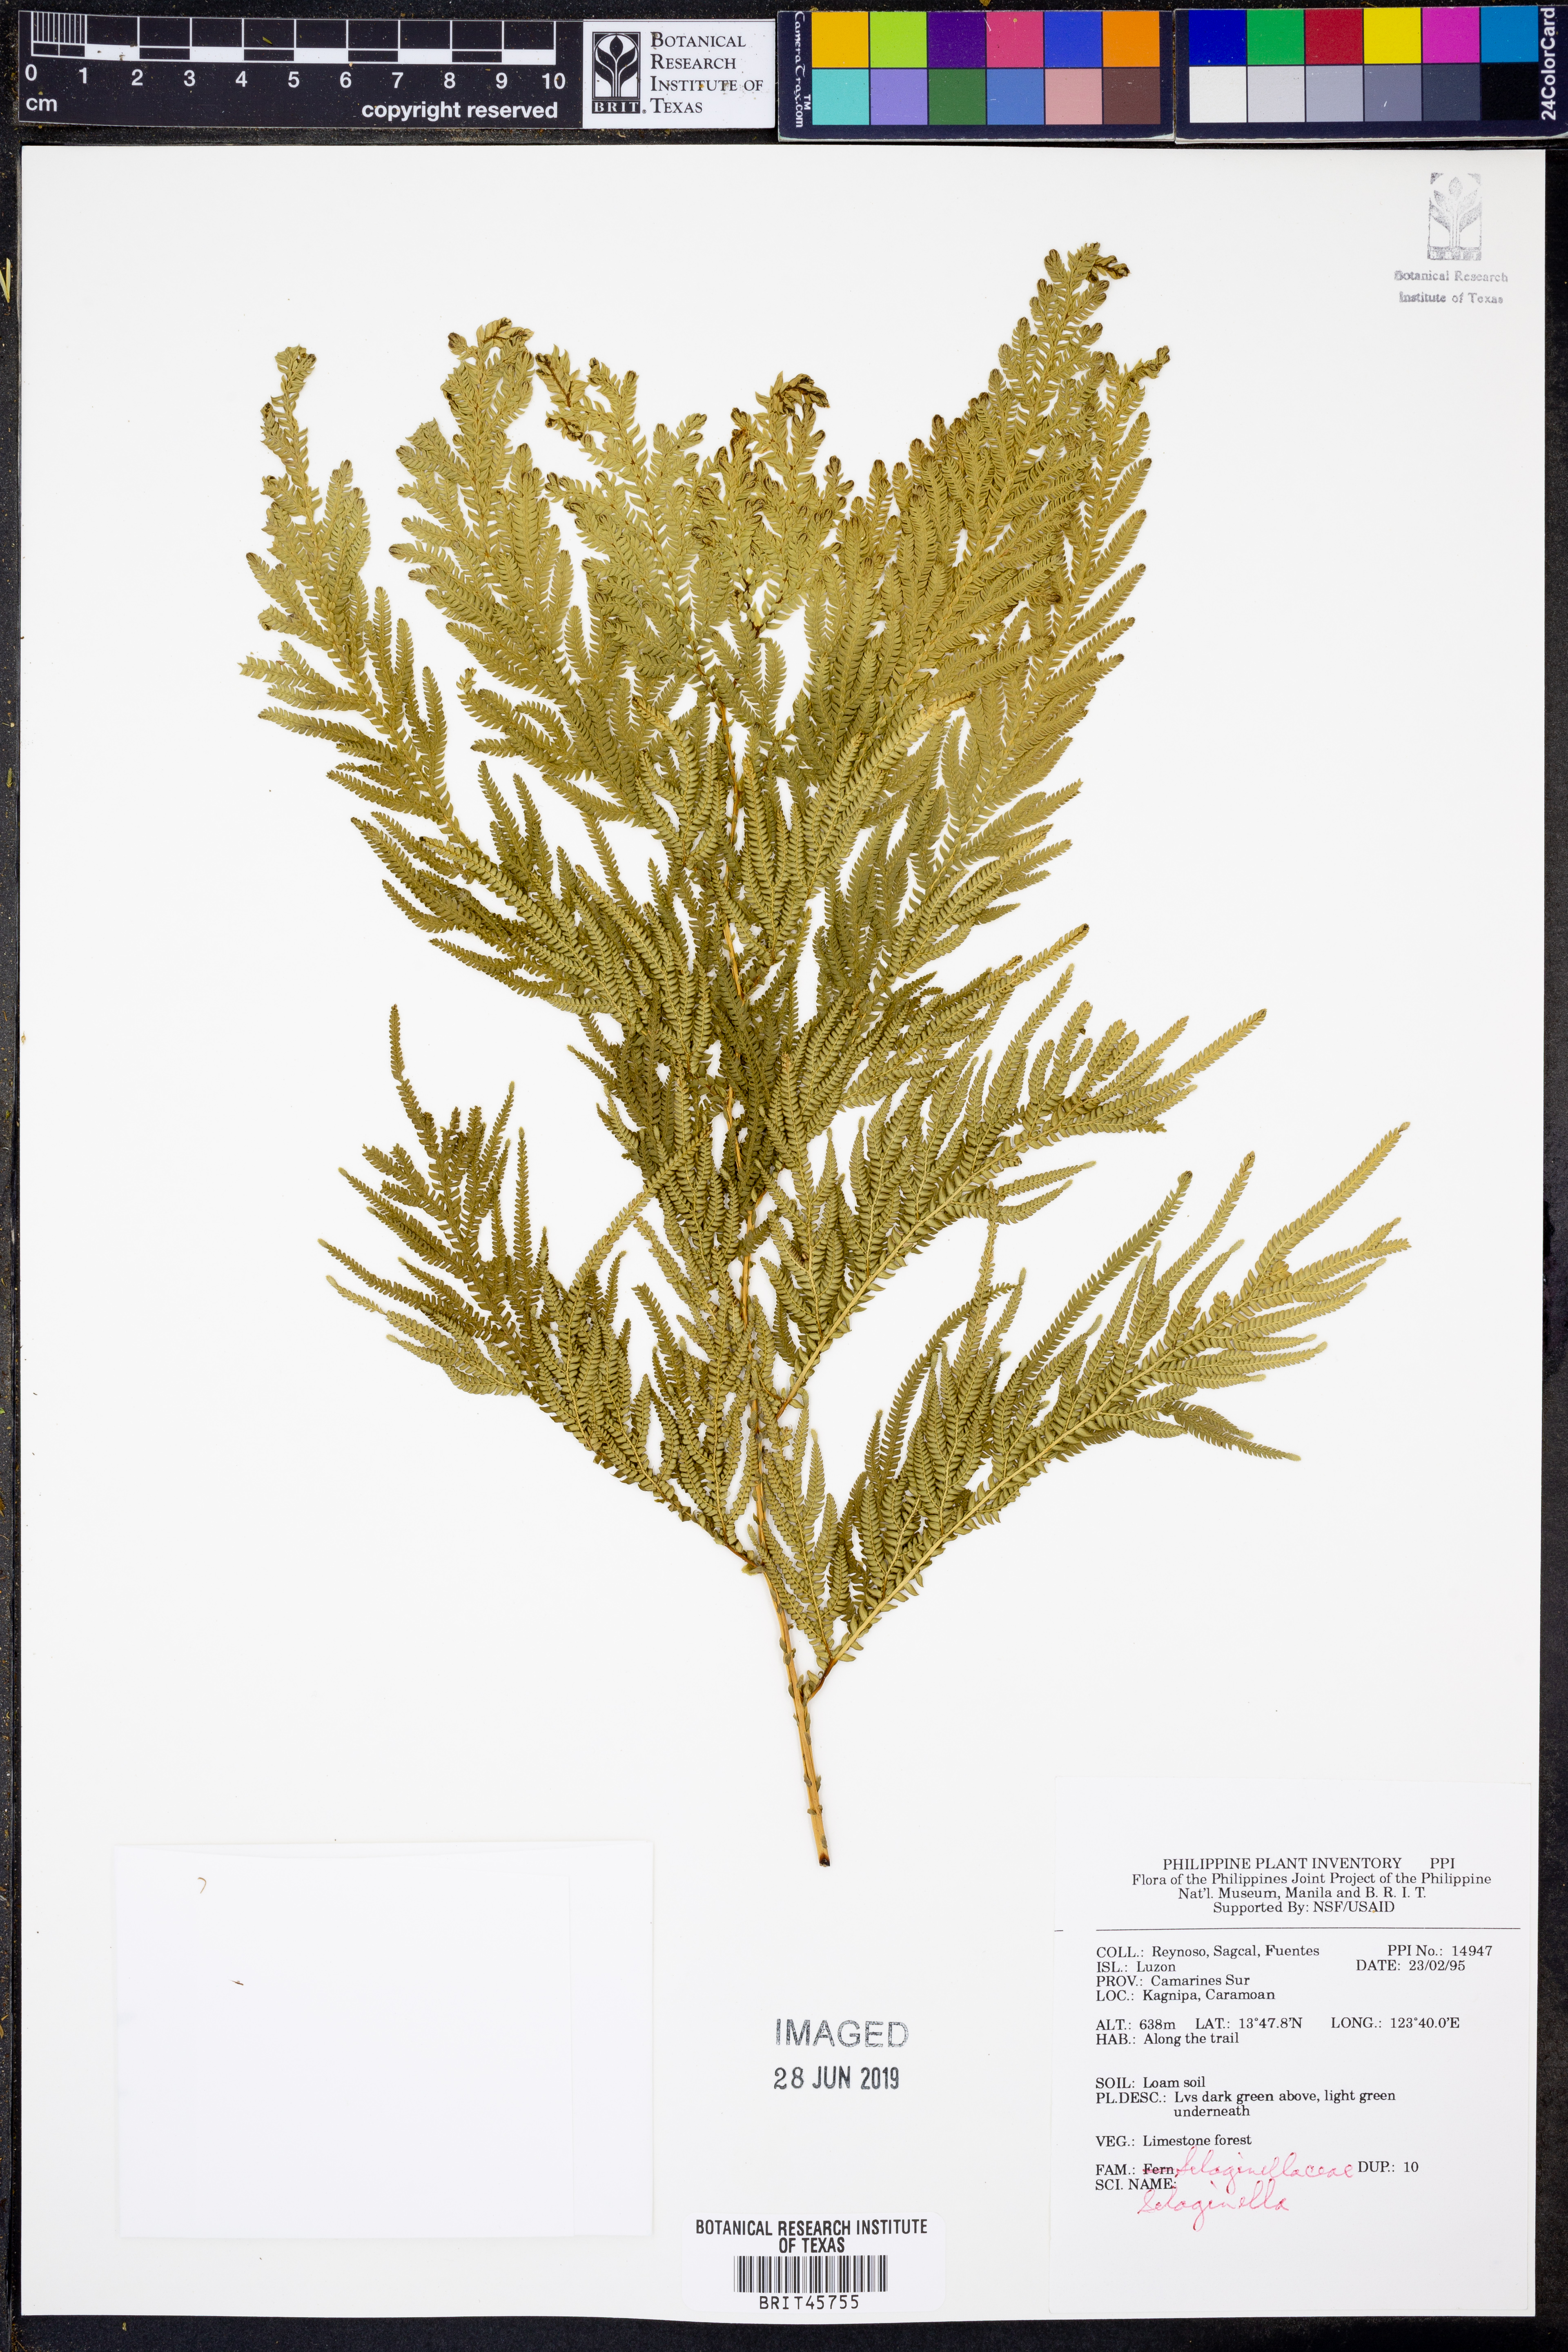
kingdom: Plantae
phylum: Tracheophyta
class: Lycopodiopsida
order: Selaginellales
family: Selaginellaceae
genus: Selaginella
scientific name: Selaginella
